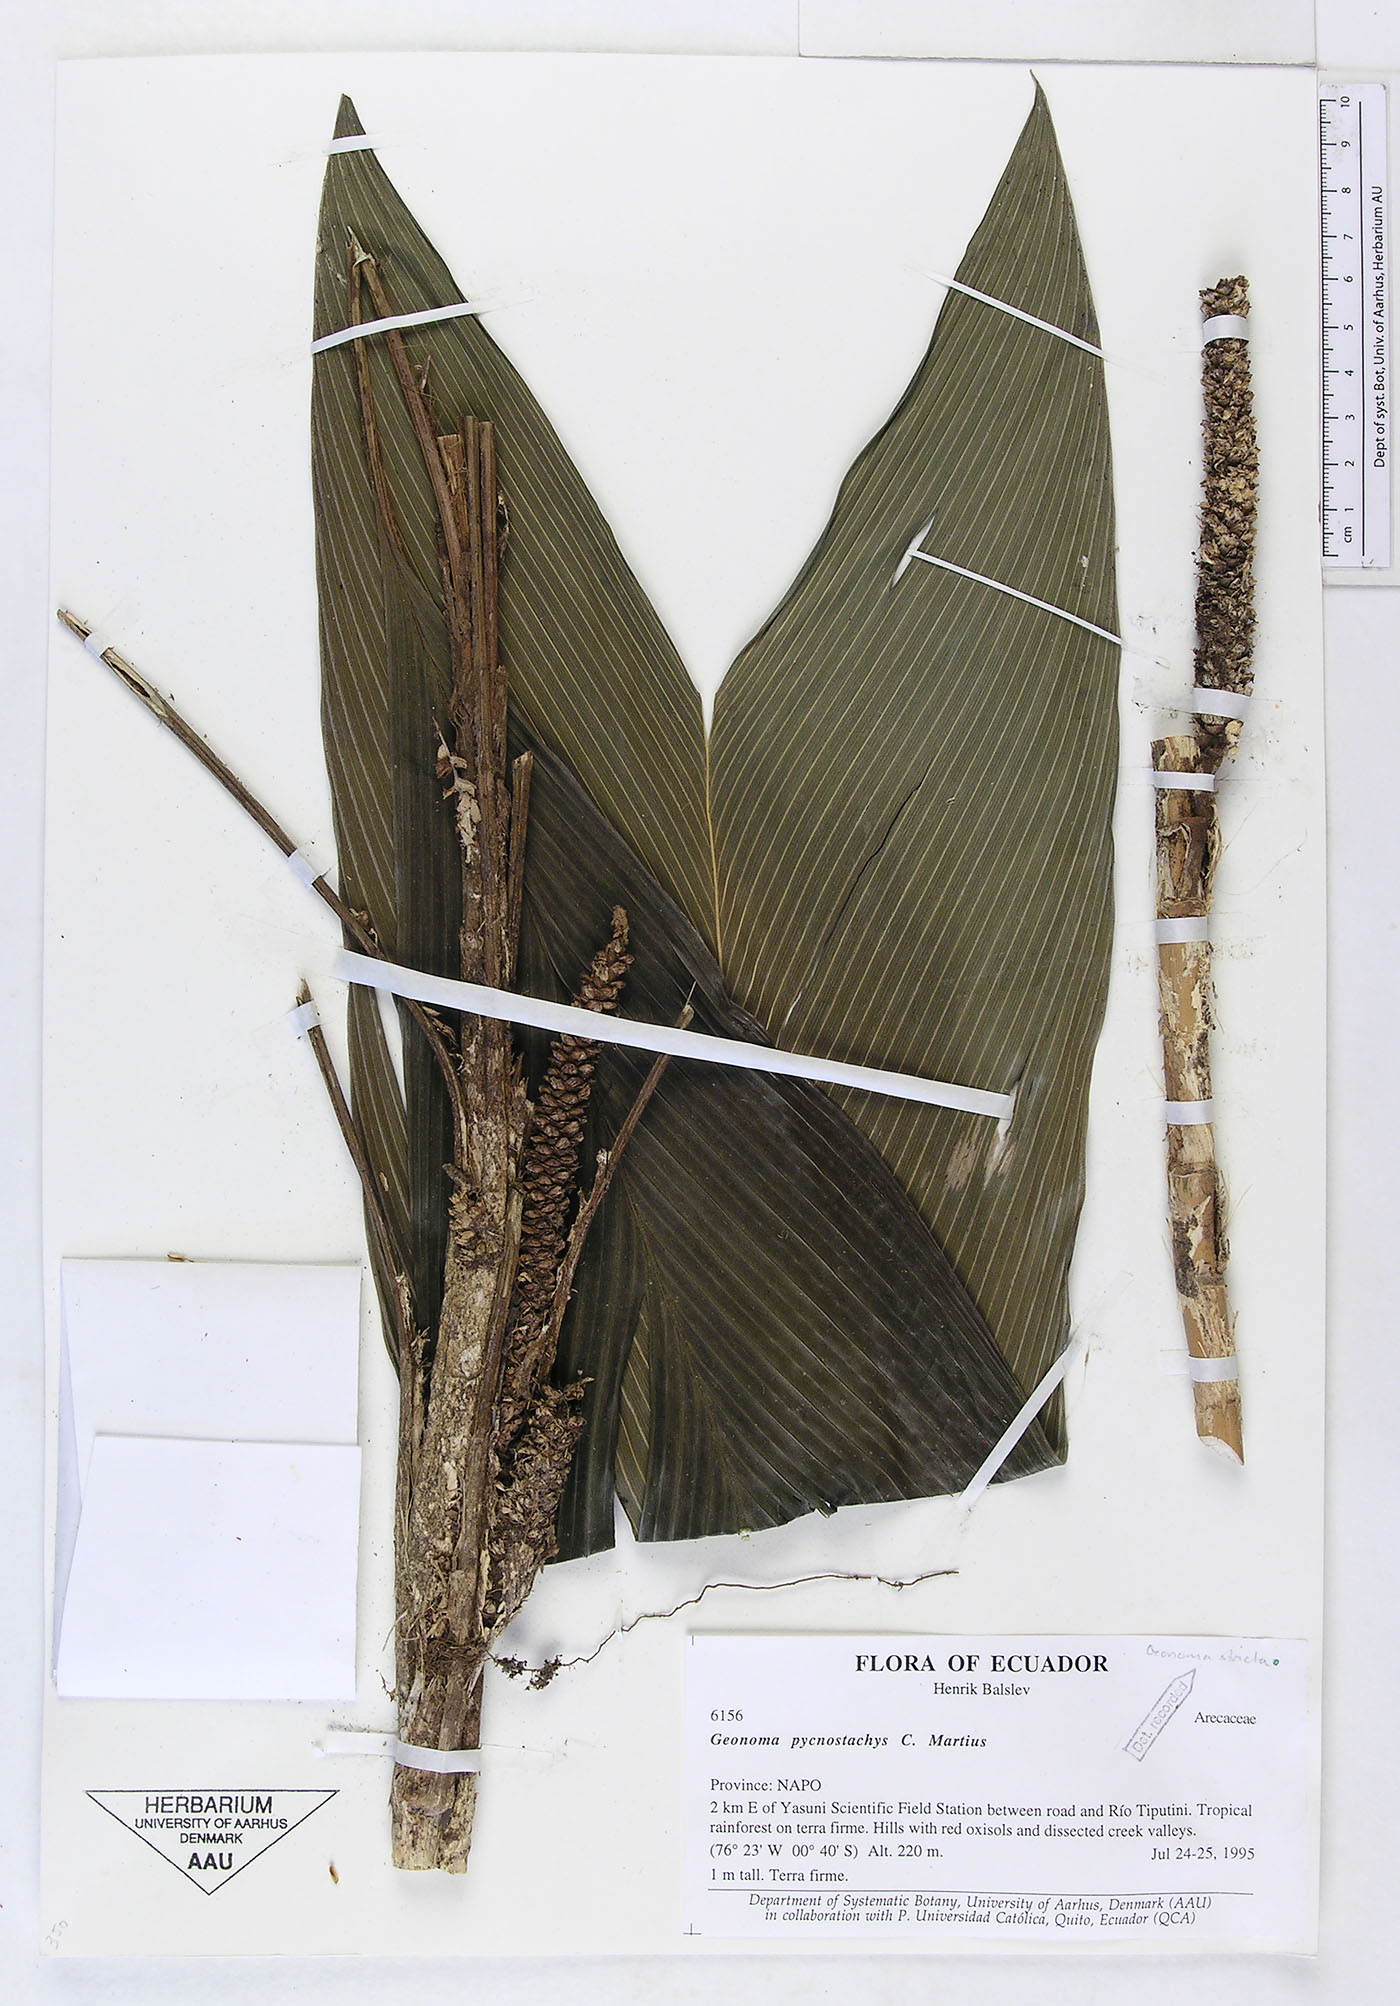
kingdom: Plantae
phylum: Tracheophyta
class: Liliopsida
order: Arecales
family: Arecaceae
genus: Geonoma
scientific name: Geonoma stricta
